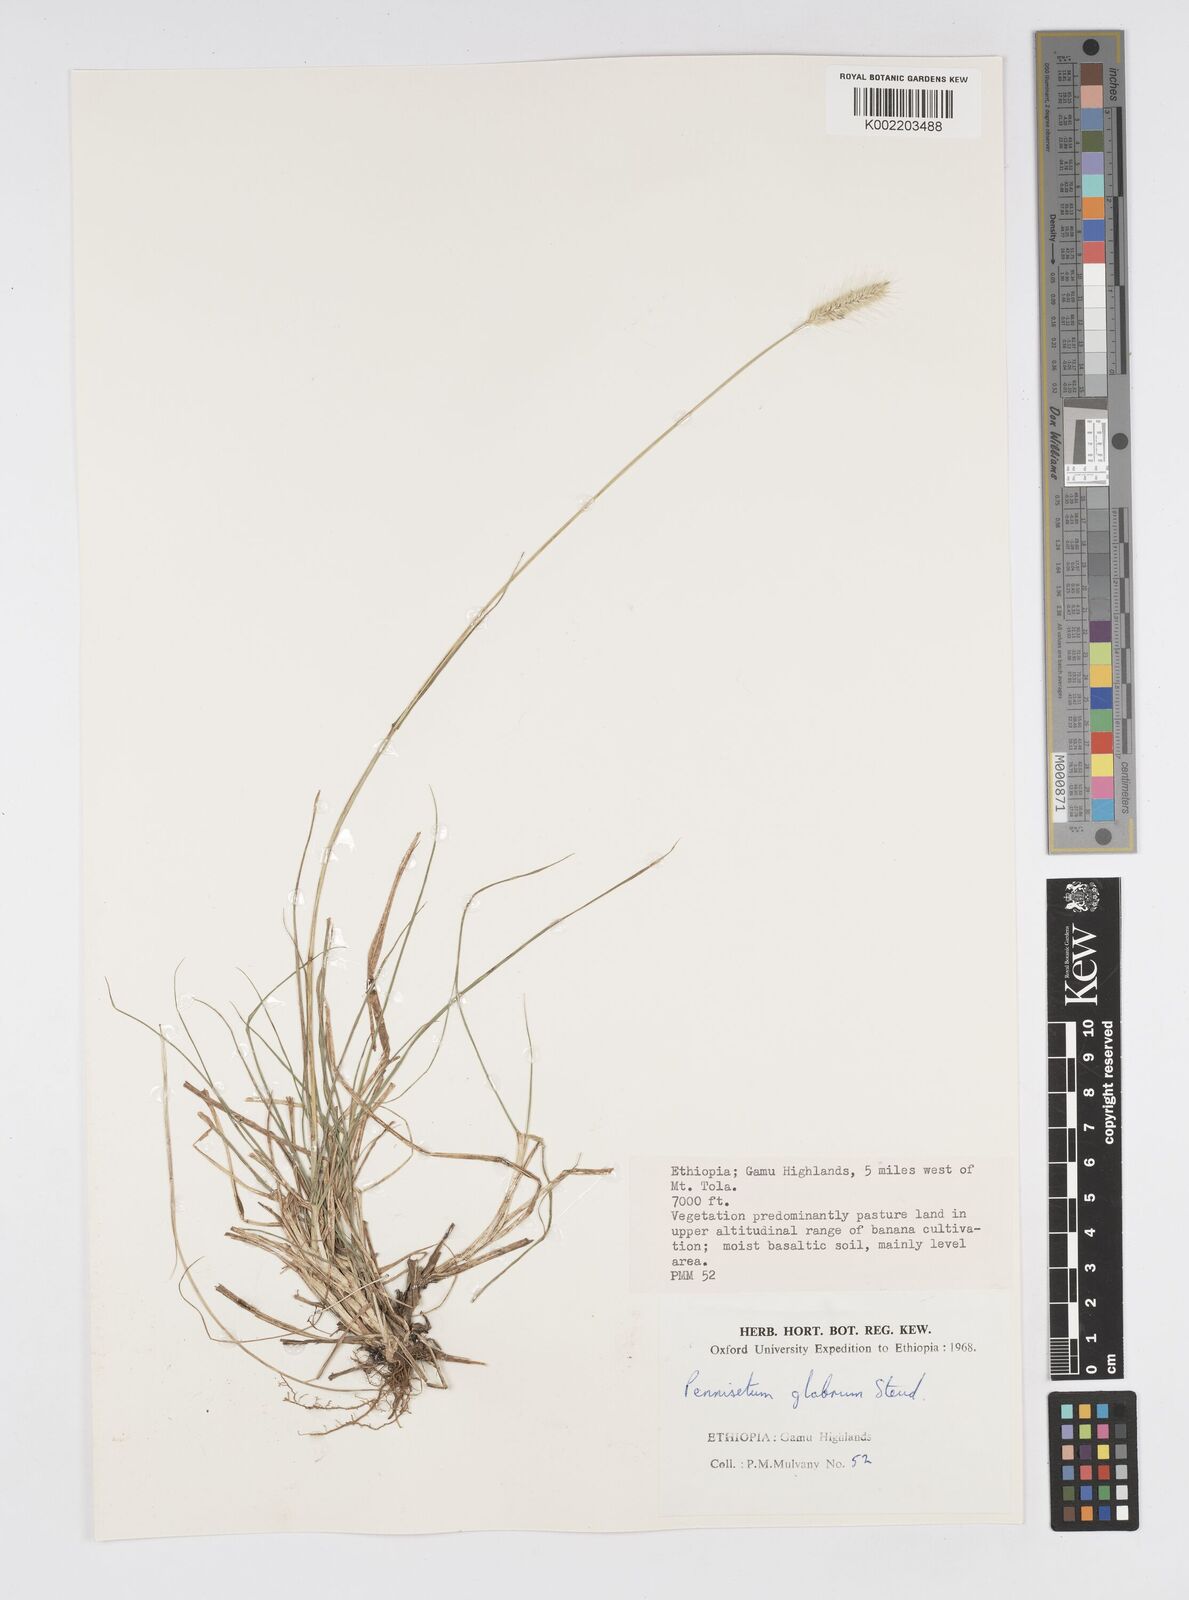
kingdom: Plantae
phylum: Tracheophyta
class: Liliopsida
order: Poales
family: Poaceae
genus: Cenchrus
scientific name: Cenchrus geniculatus
